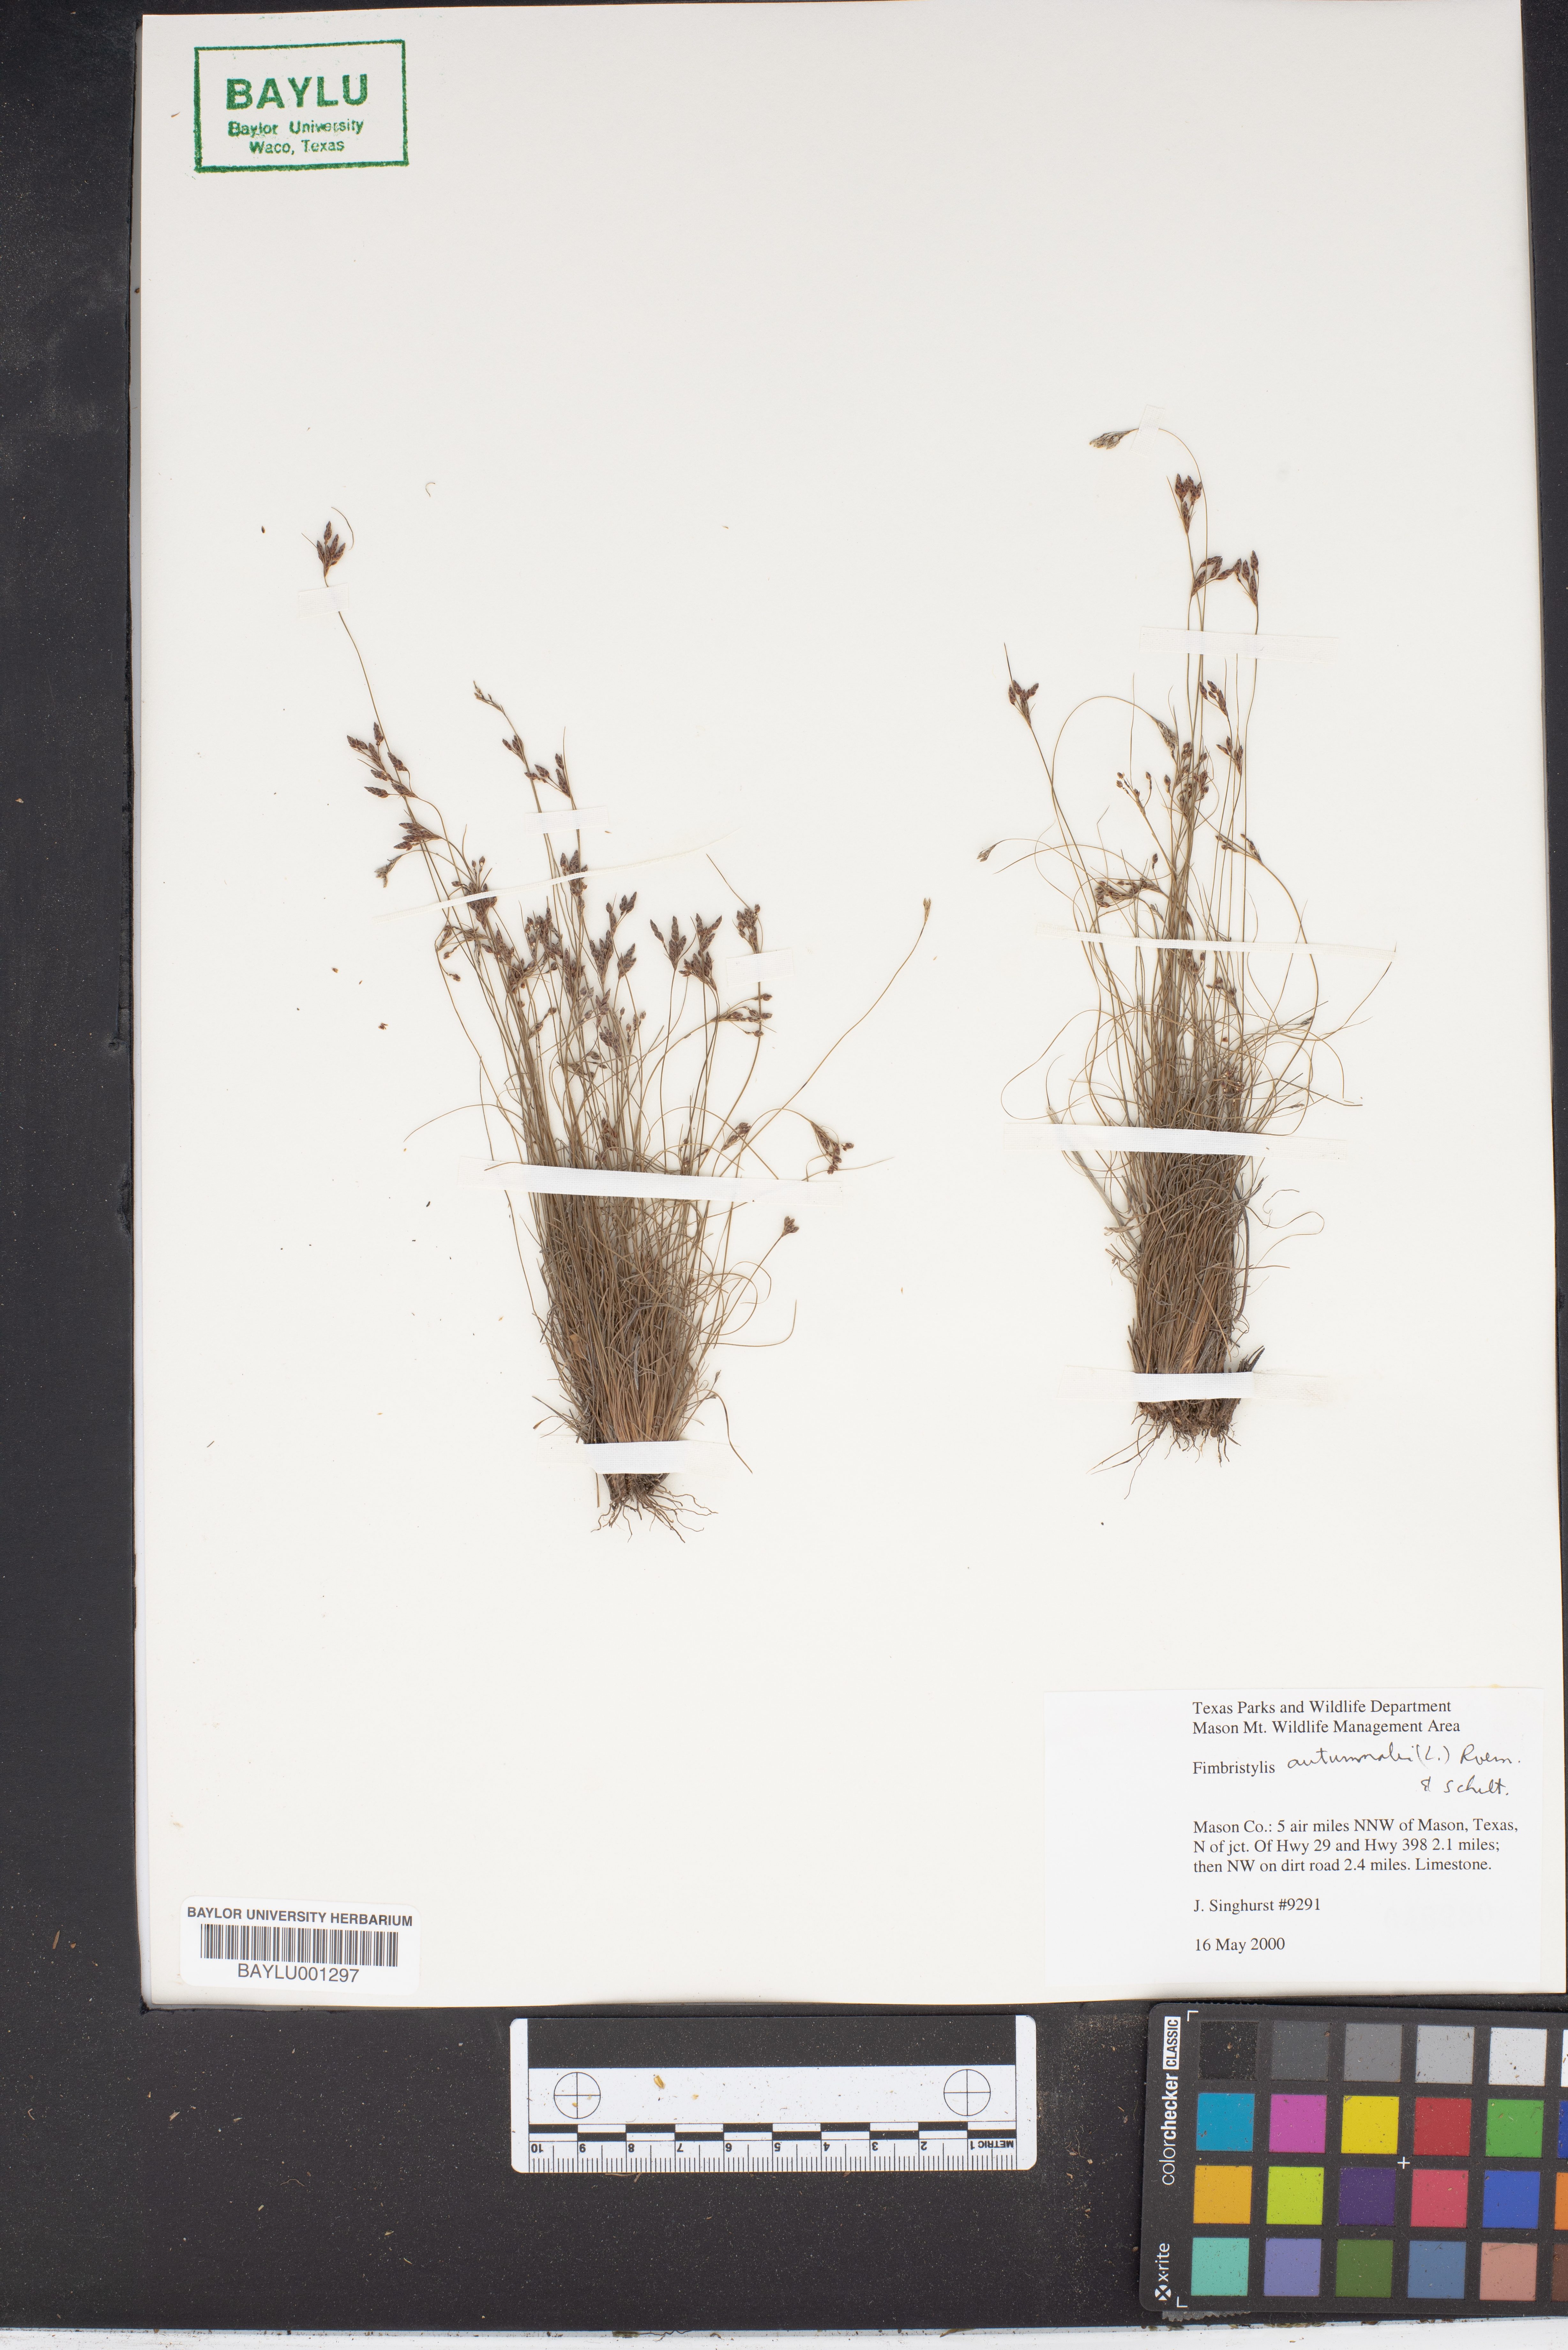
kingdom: Plantae
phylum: Tracheophyta
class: Liliopsida
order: Poales
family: Cyperaceae
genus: Fimbristylis
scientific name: Fimbristylis autumnalis
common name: Slender fimbristylis
